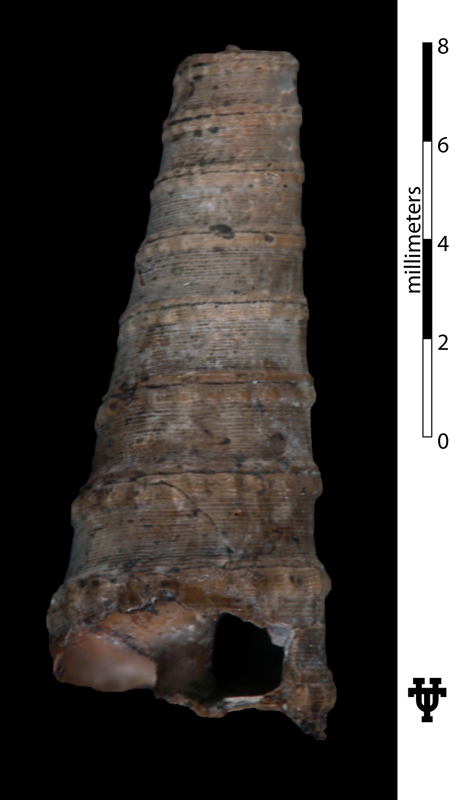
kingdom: Animalia
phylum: Mollusca
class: Gastropoda
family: Turritellidae
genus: Turritella
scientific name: Turritella nerinexa
